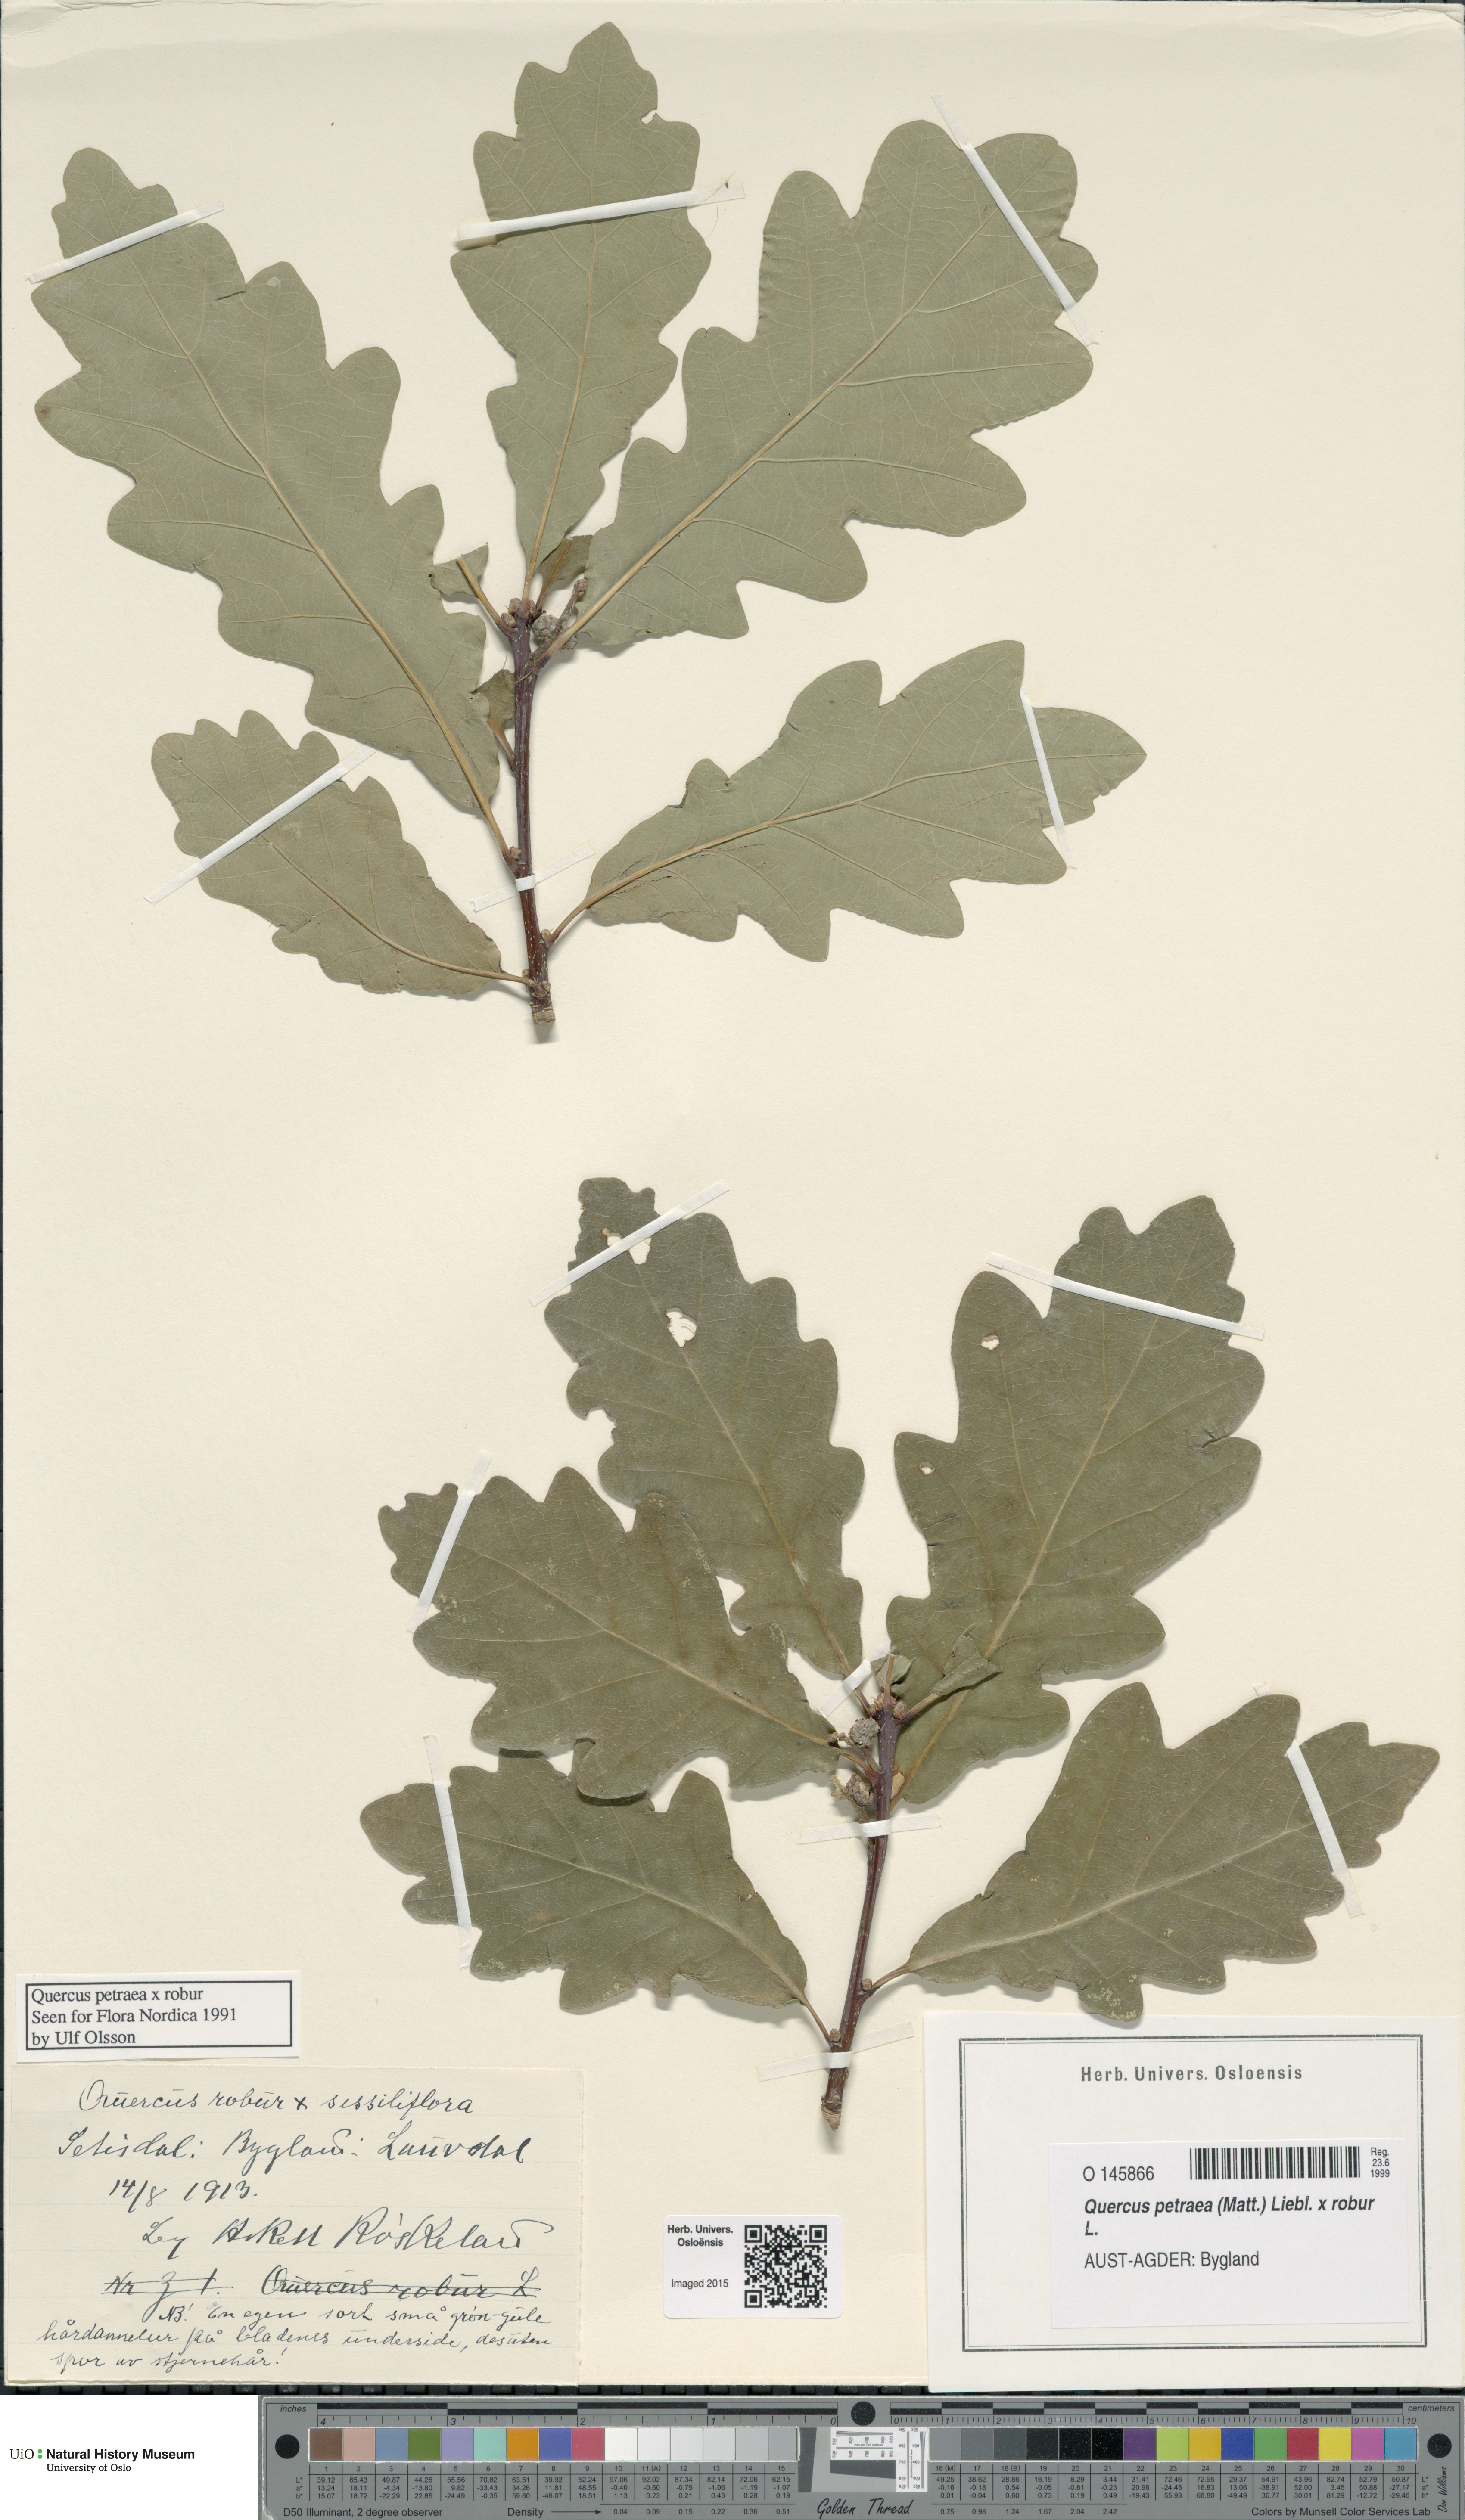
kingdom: Plantae
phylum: Tracheophyta
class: Magnoliopsida
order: Fagales
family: Fagaceae
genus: Quercus
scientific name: Quercus
